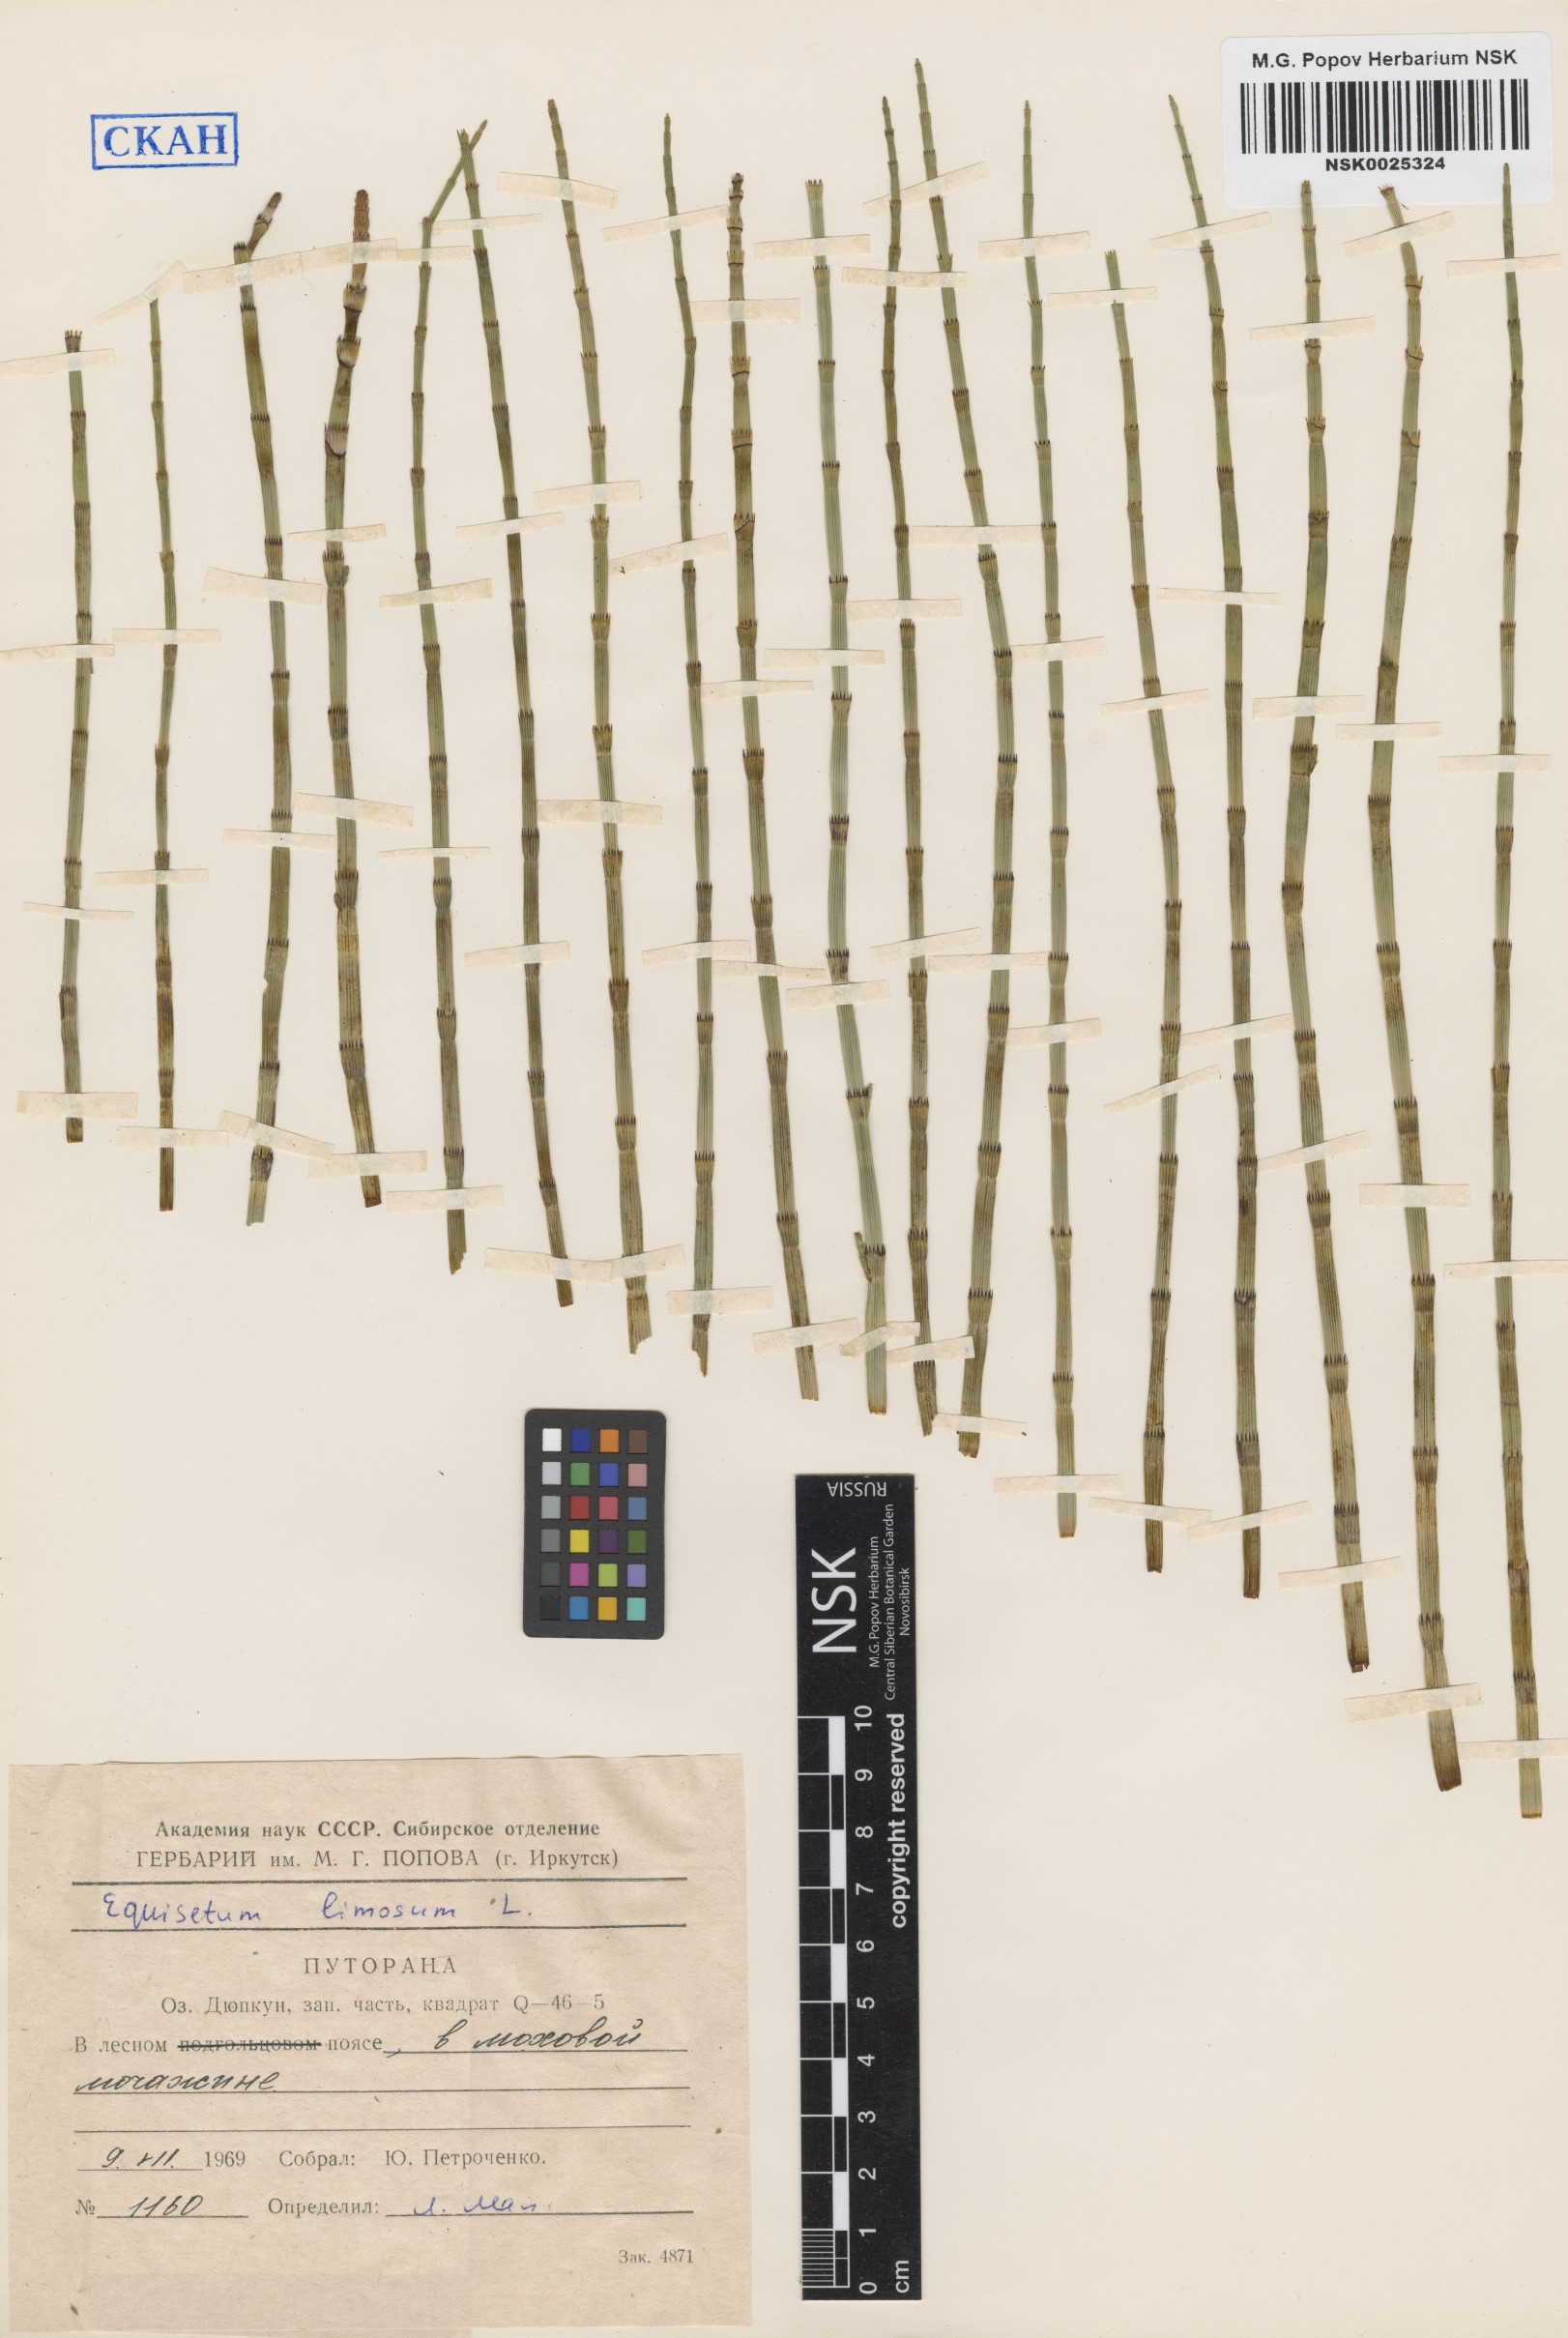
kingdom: Plantae
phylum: Tracheophyta
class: Polypodiopsida
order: Equisetales
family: Equisetaceae
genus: Equisetum
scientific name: Equisetum fluviatile
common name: Water horsetail
